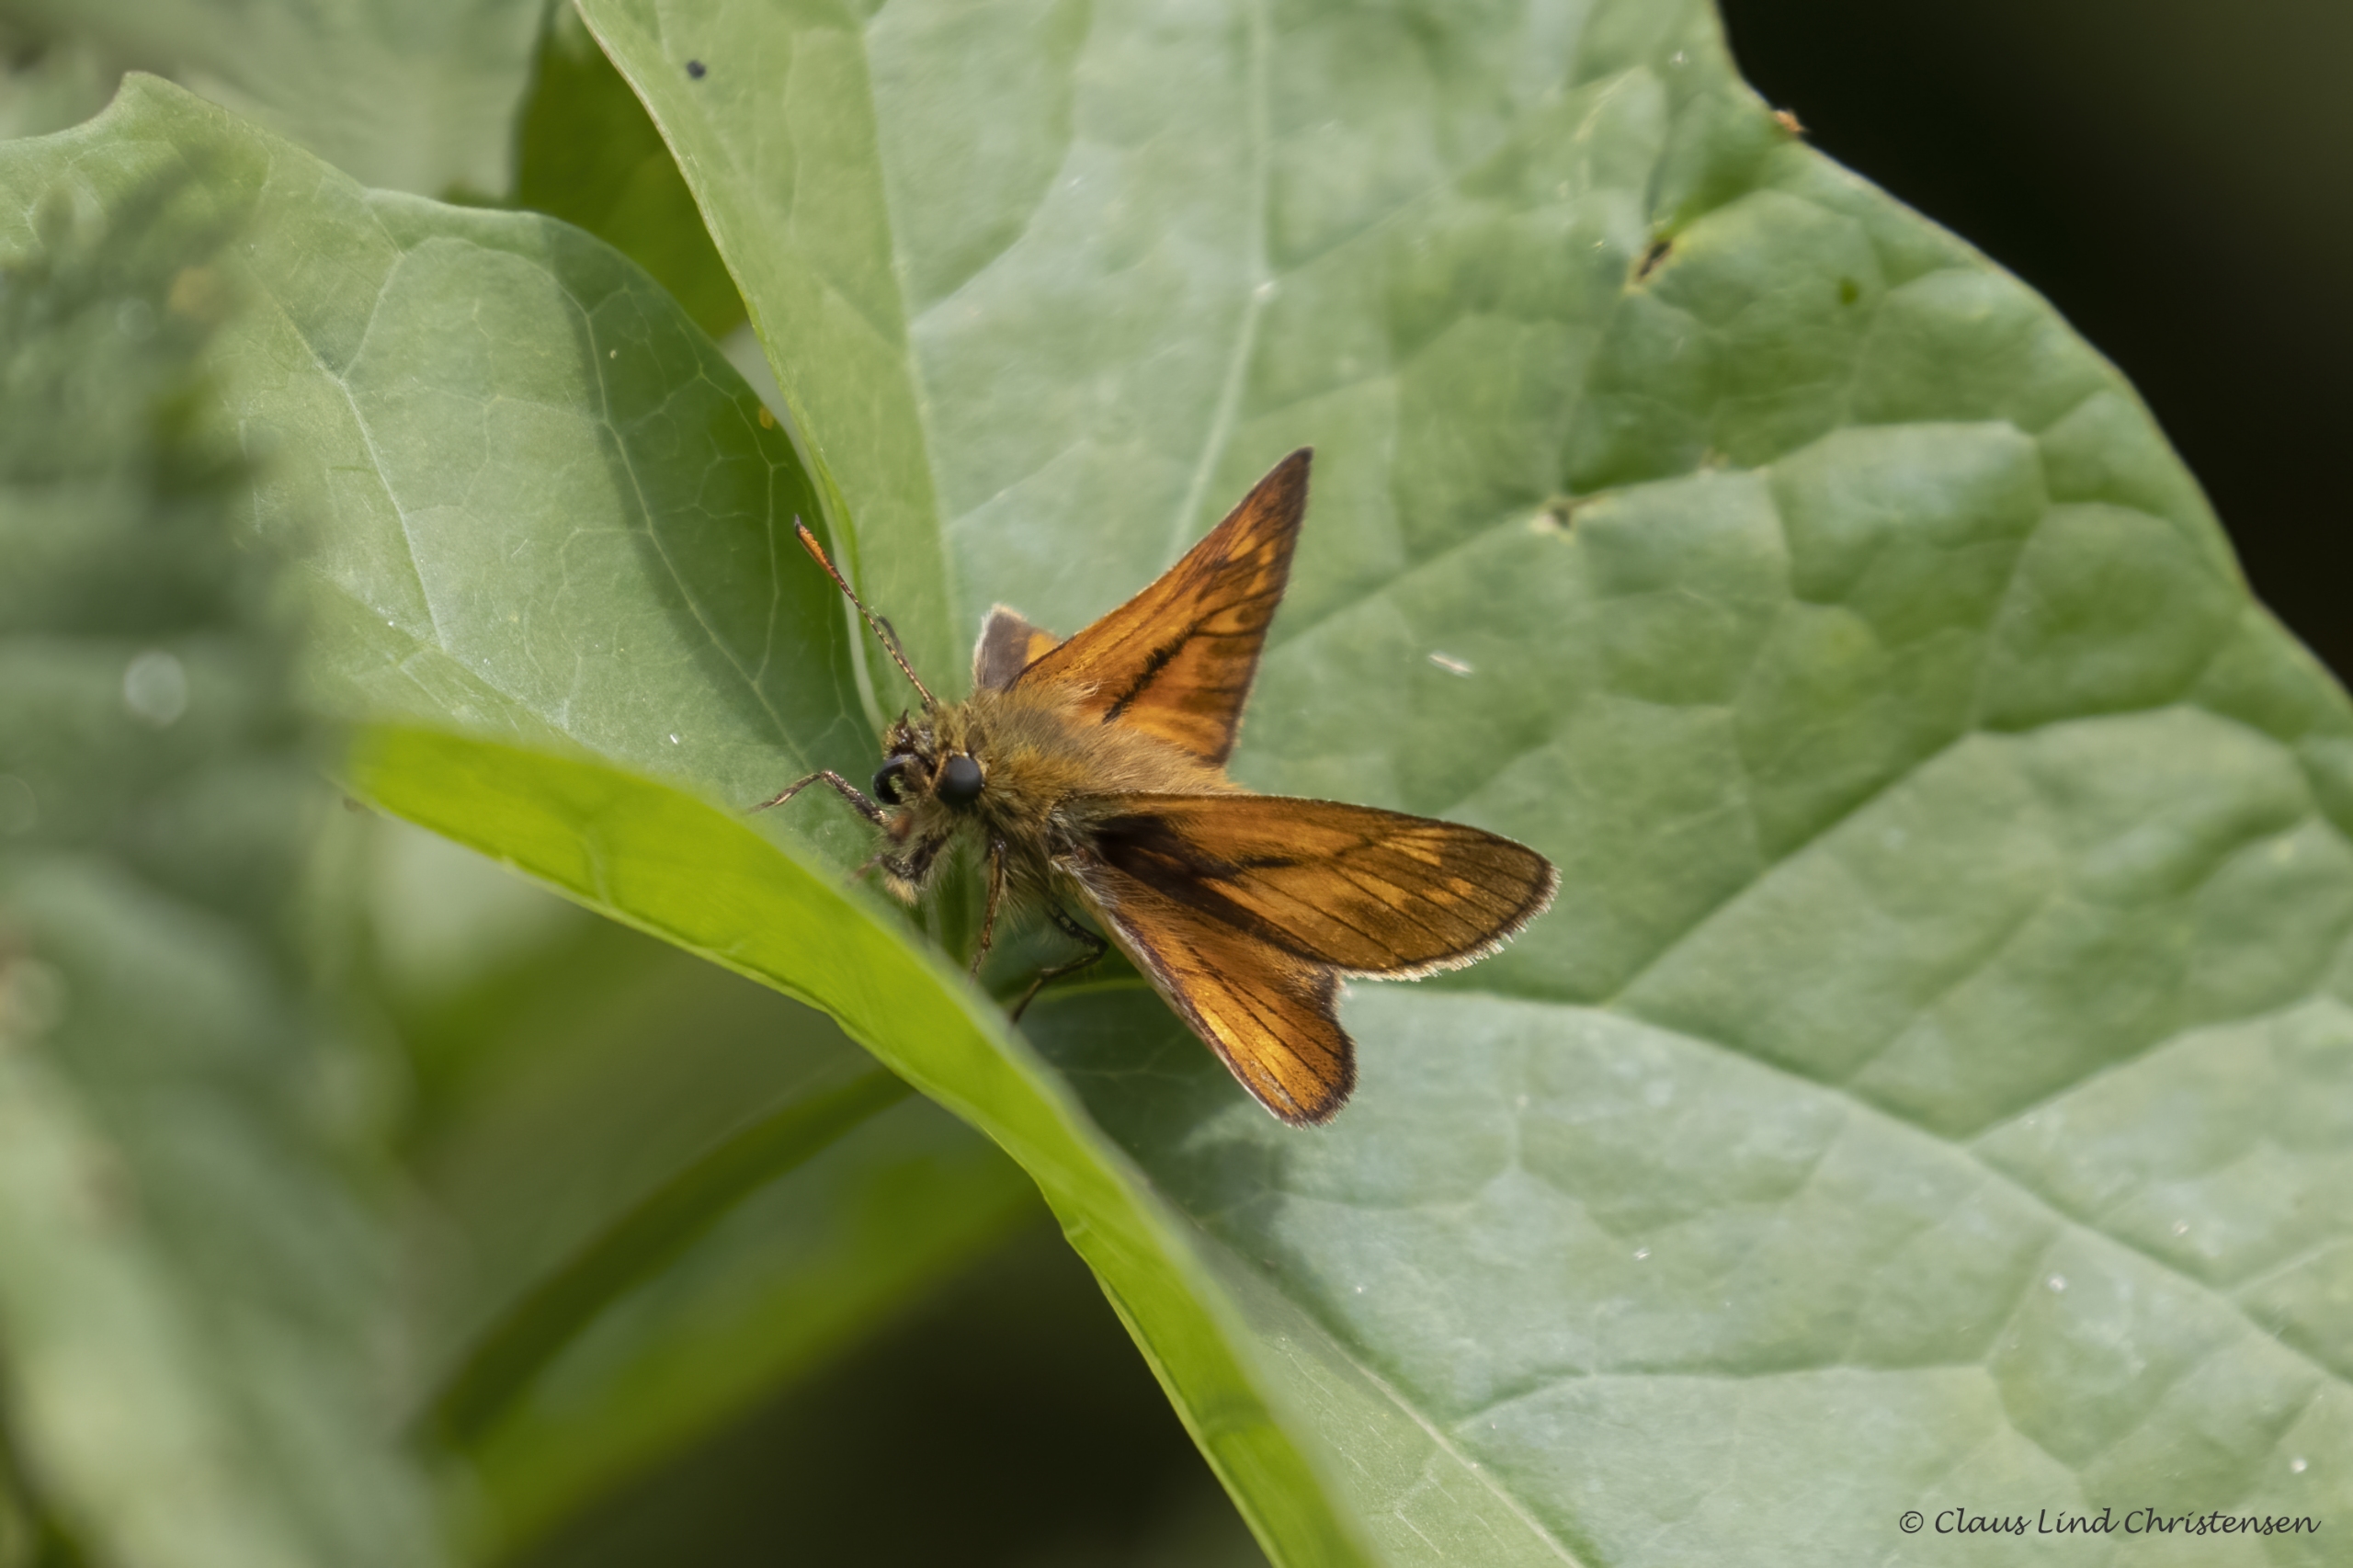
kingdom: Animalia
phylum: Arthropoda
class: Insecta
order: Lepidoptera
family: Hesperiidae
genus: Ochlodes
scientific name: Ochlodes venata
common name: Stor bredpande
